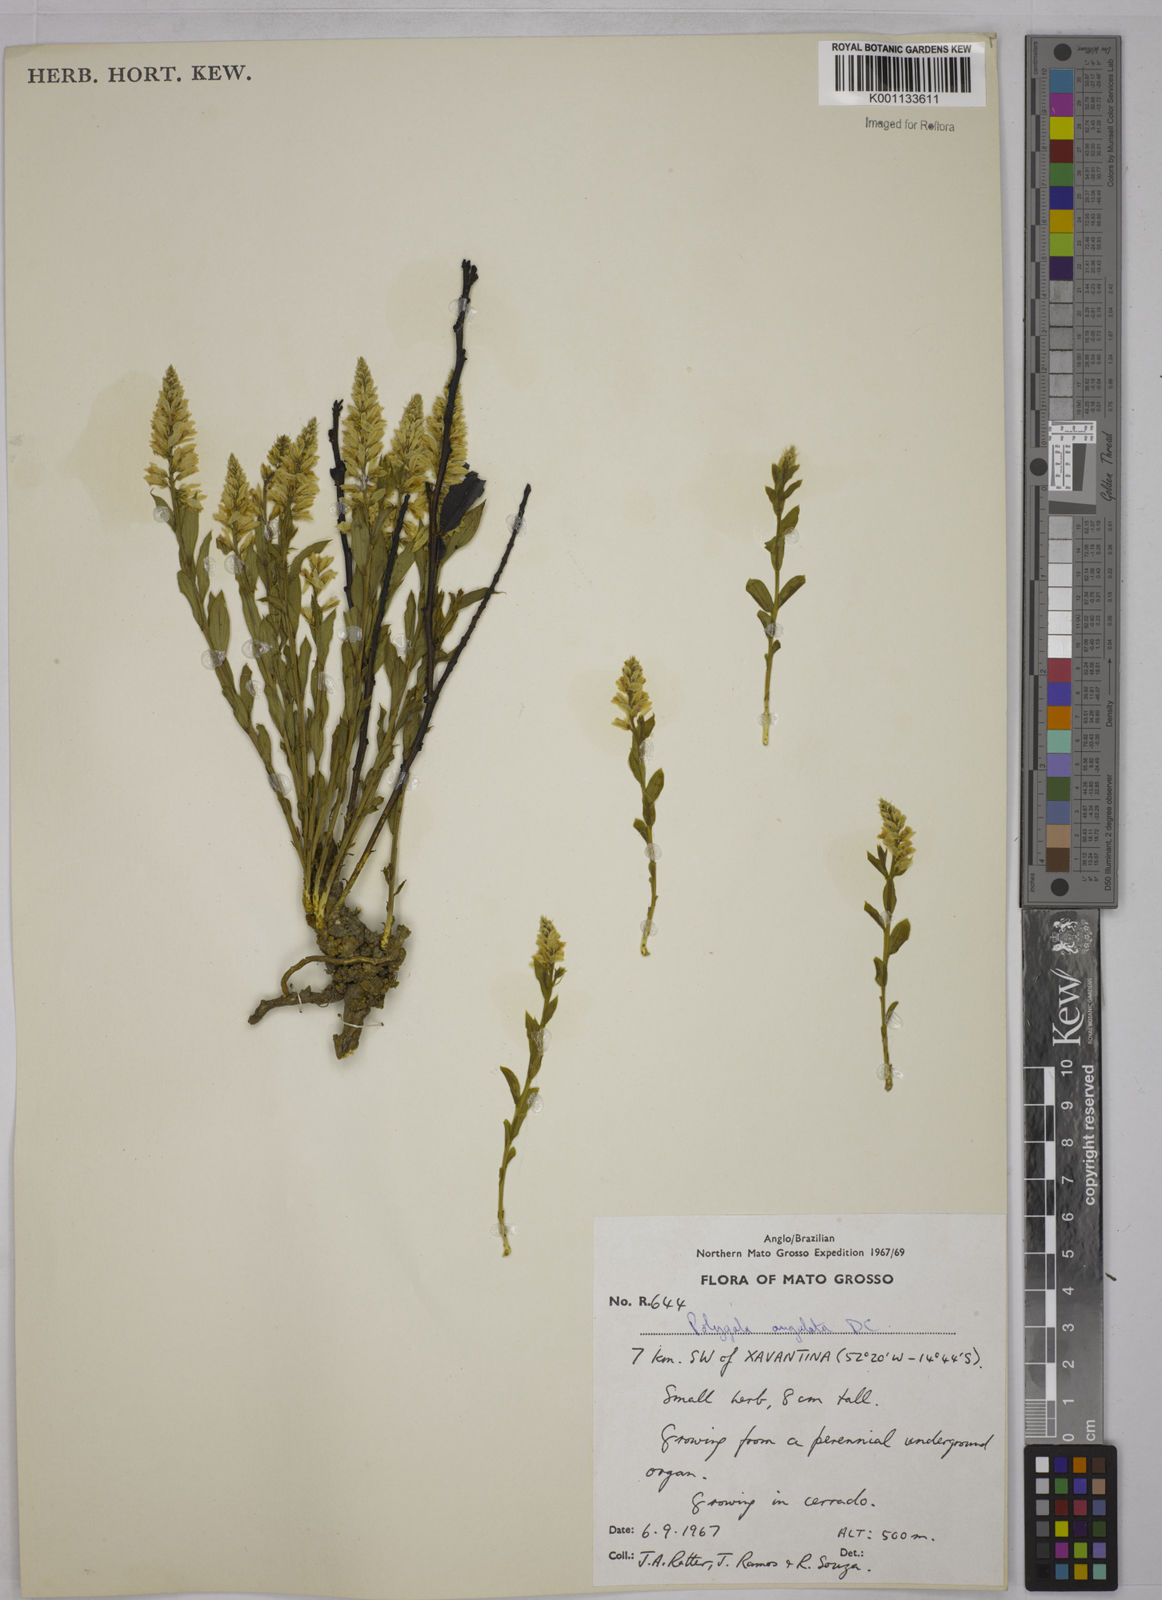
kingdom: Plantae
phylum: Tracheophyta
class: Magnoliopsida
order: Fabales
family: Polygalaceae
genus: Polygala
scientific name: Polygala poaya
